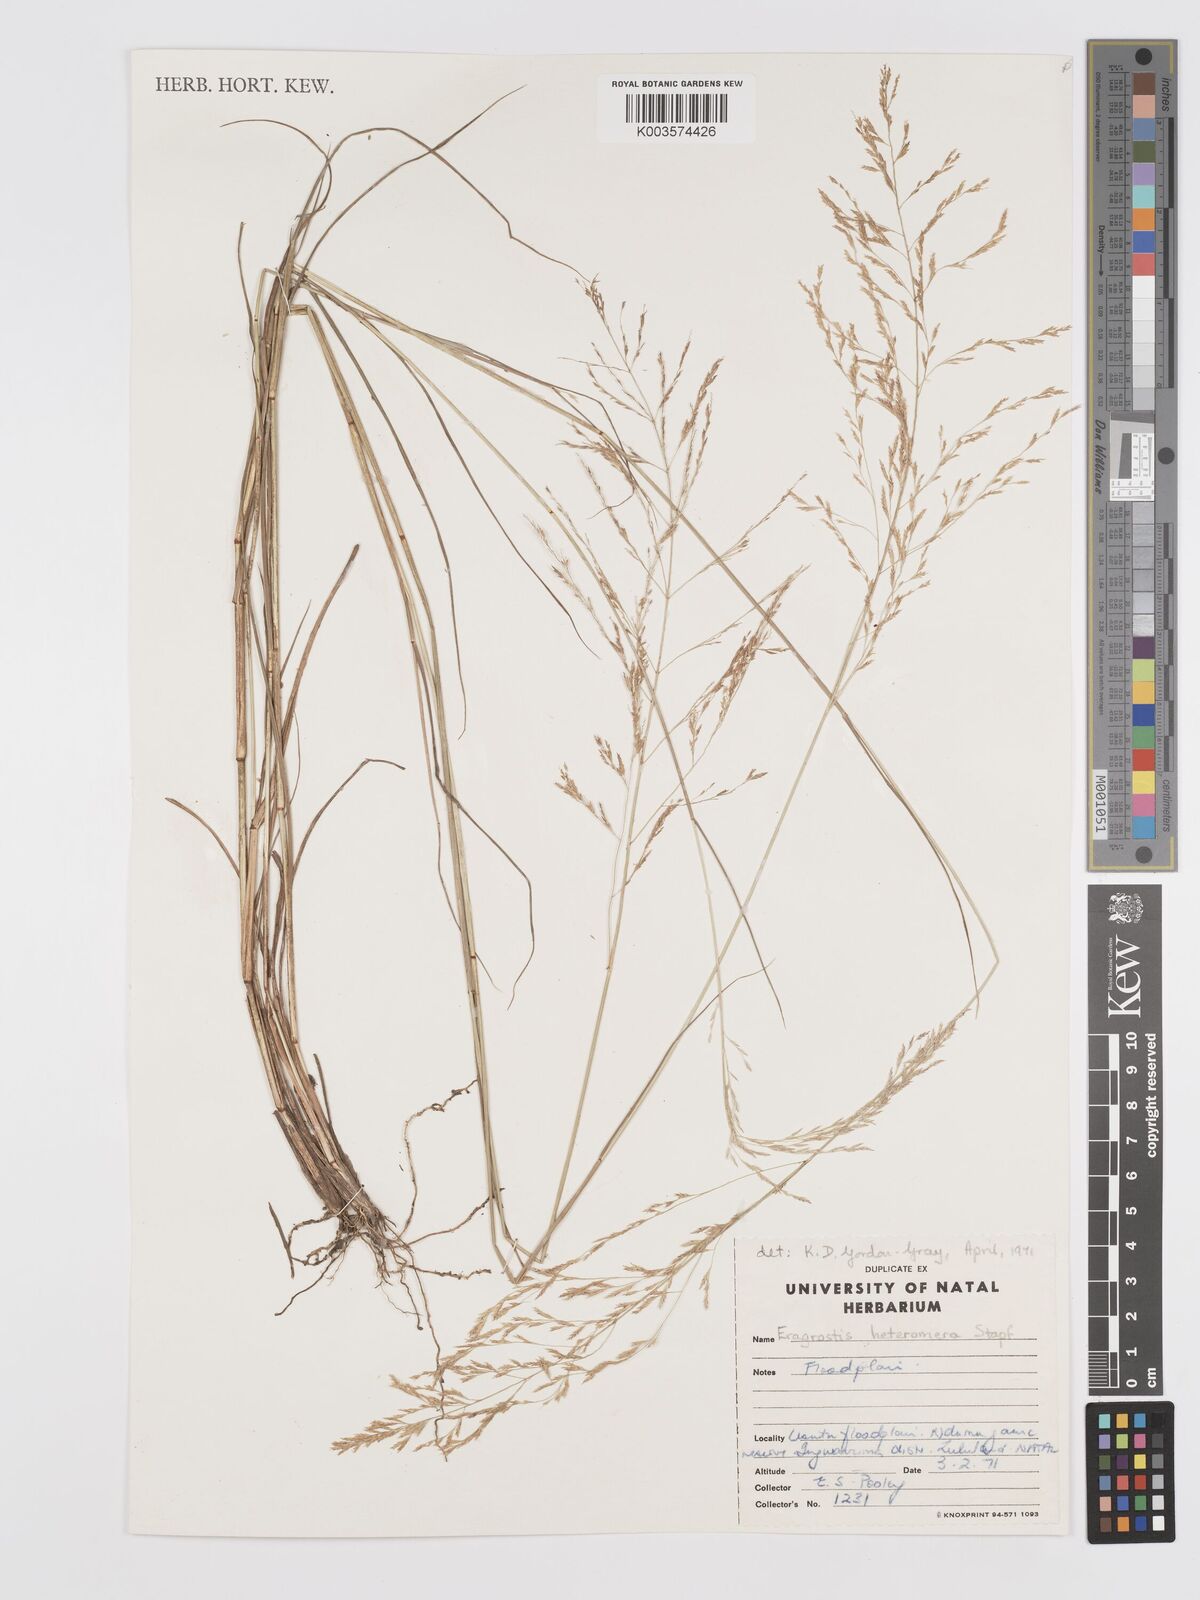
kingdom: Plantae
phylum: Tracheophyta
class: Liliopsida
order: Poales
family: Poaceae
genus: Eragrostis
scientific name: Eragrostis heteromera
